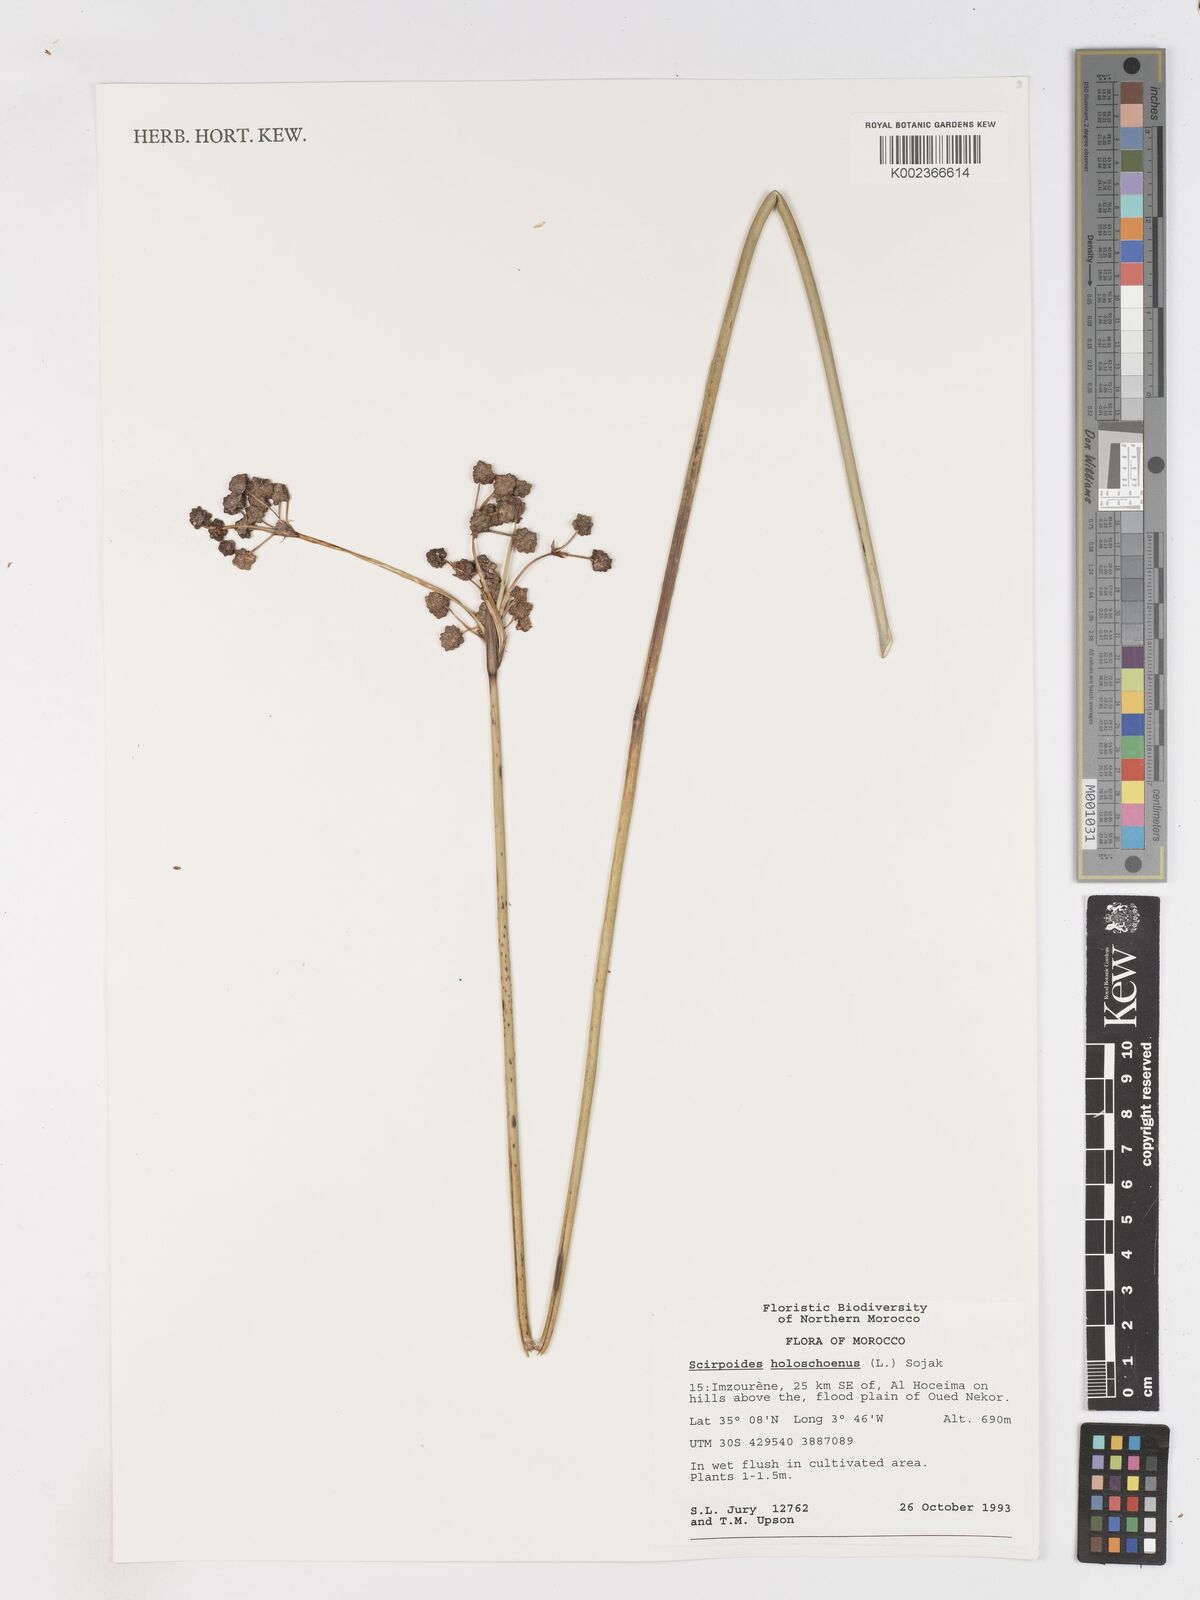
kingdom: Plantae
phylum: Tracheophyta
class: Liliopsida
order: Poales
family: Cyperaceae
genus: Scirpoides
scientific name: Scirpoides holoschoenus
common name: Round-headed club-rush
